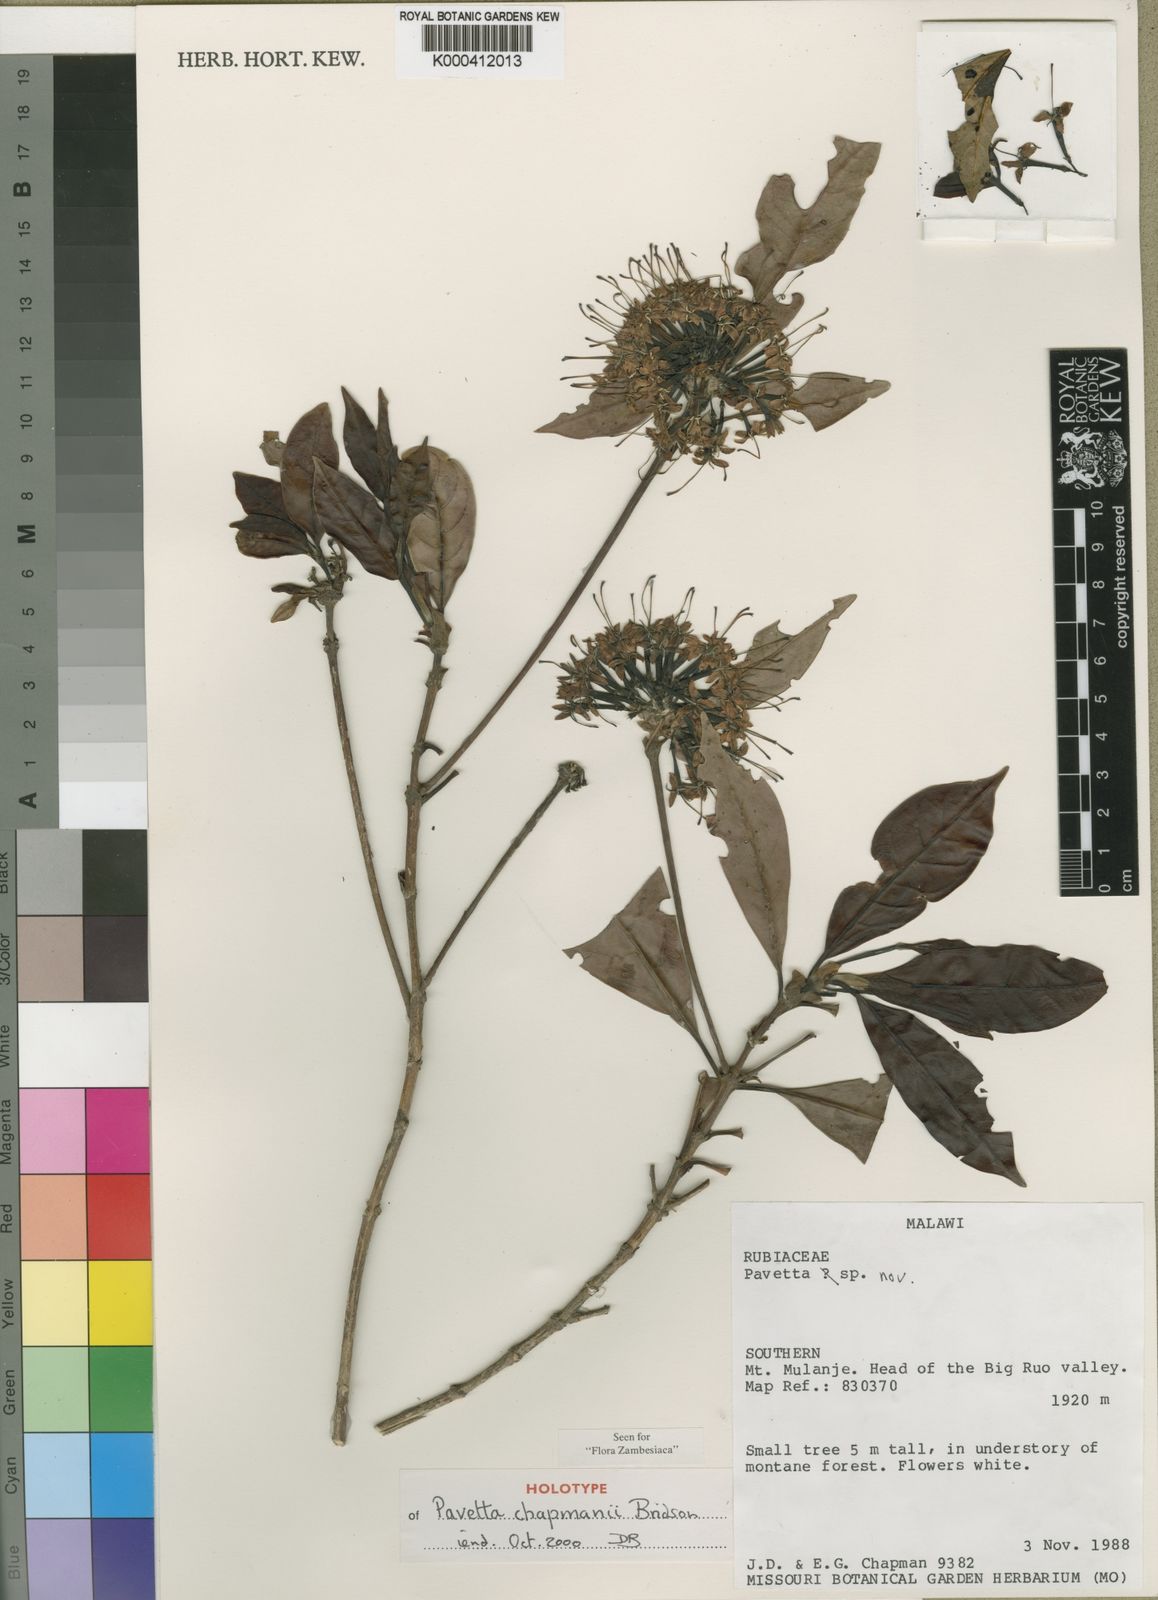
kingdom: Plantae
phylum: Tracheophyta
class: Magnoliopsida
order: Gentianales
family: Rubiaceae
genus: Pavetta
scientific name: Pavetta chapmanii
